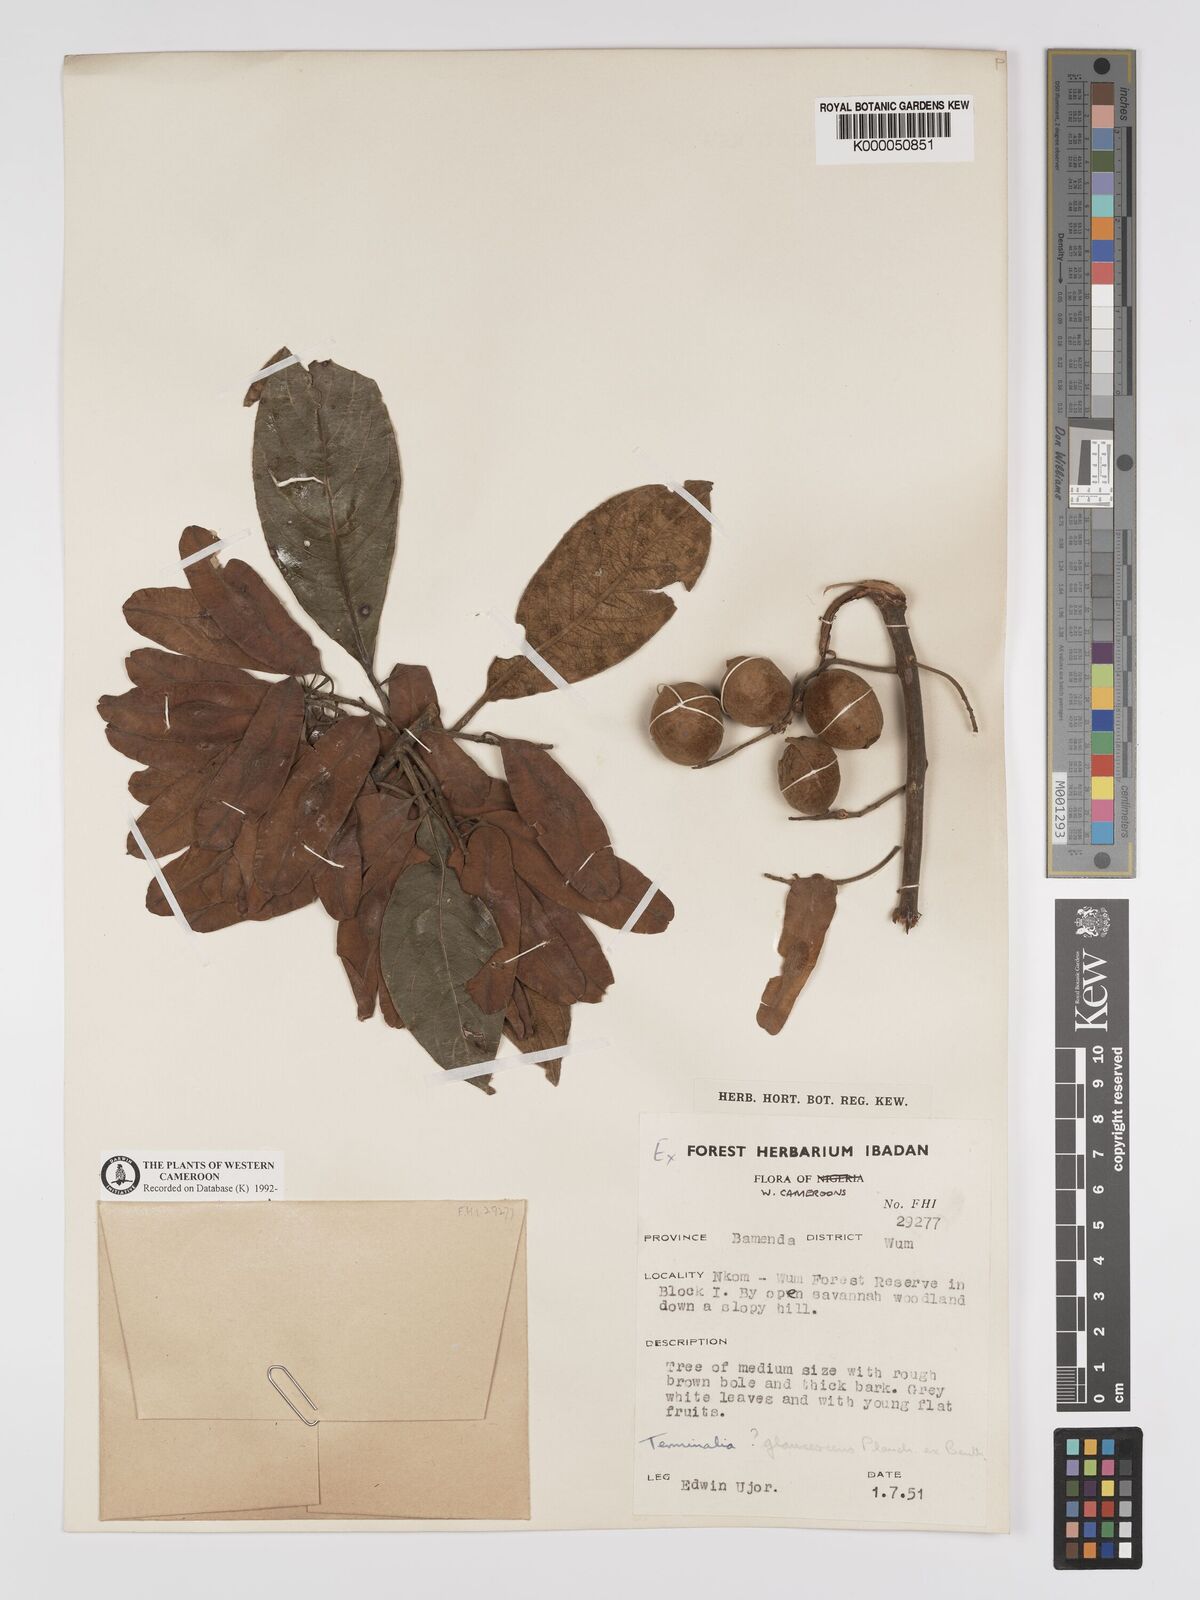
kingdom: Plantae
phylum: Tracheophyta
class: Magnoliopsida
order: Myrtales
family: Combretaceae
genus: Terminalia
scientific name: Terminalia schimperiana
